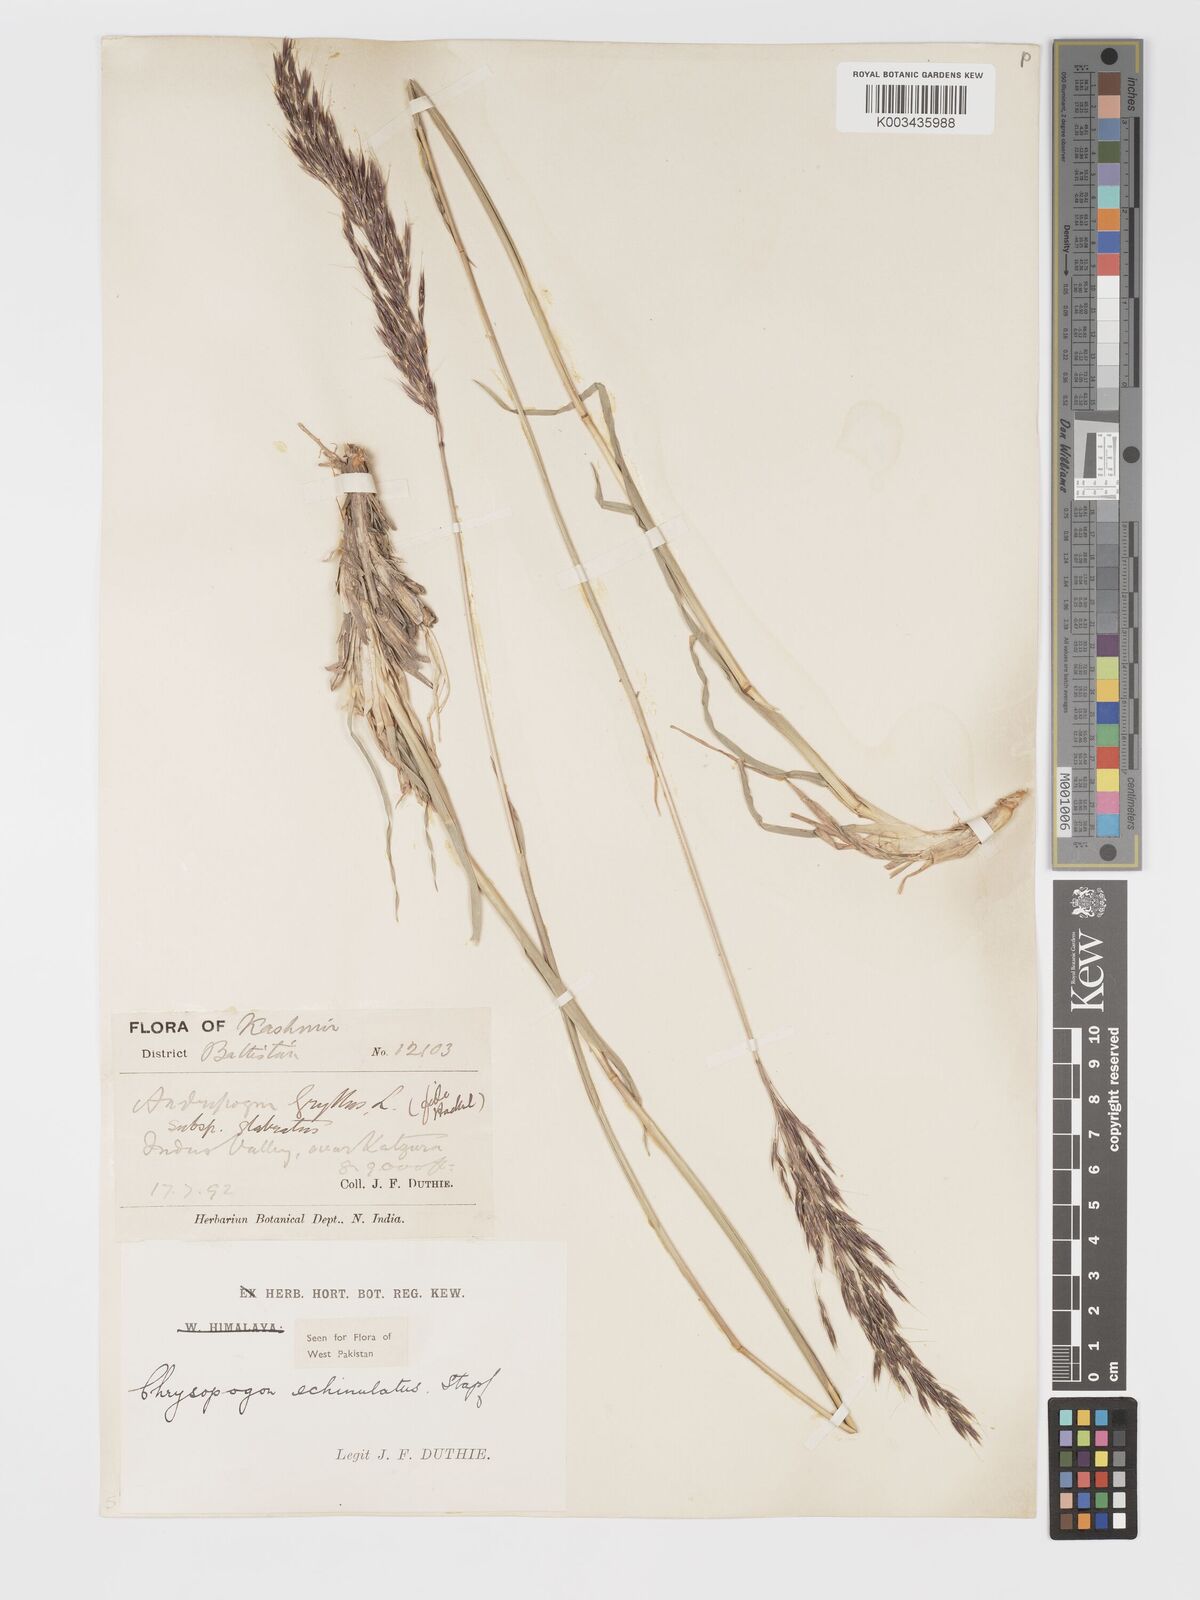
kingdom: Plantae
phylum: Tracheophyta
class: Liliopsida
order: Poales
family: Poaceae
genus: Chrysopogon
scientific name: Chrysopogon gryllus
